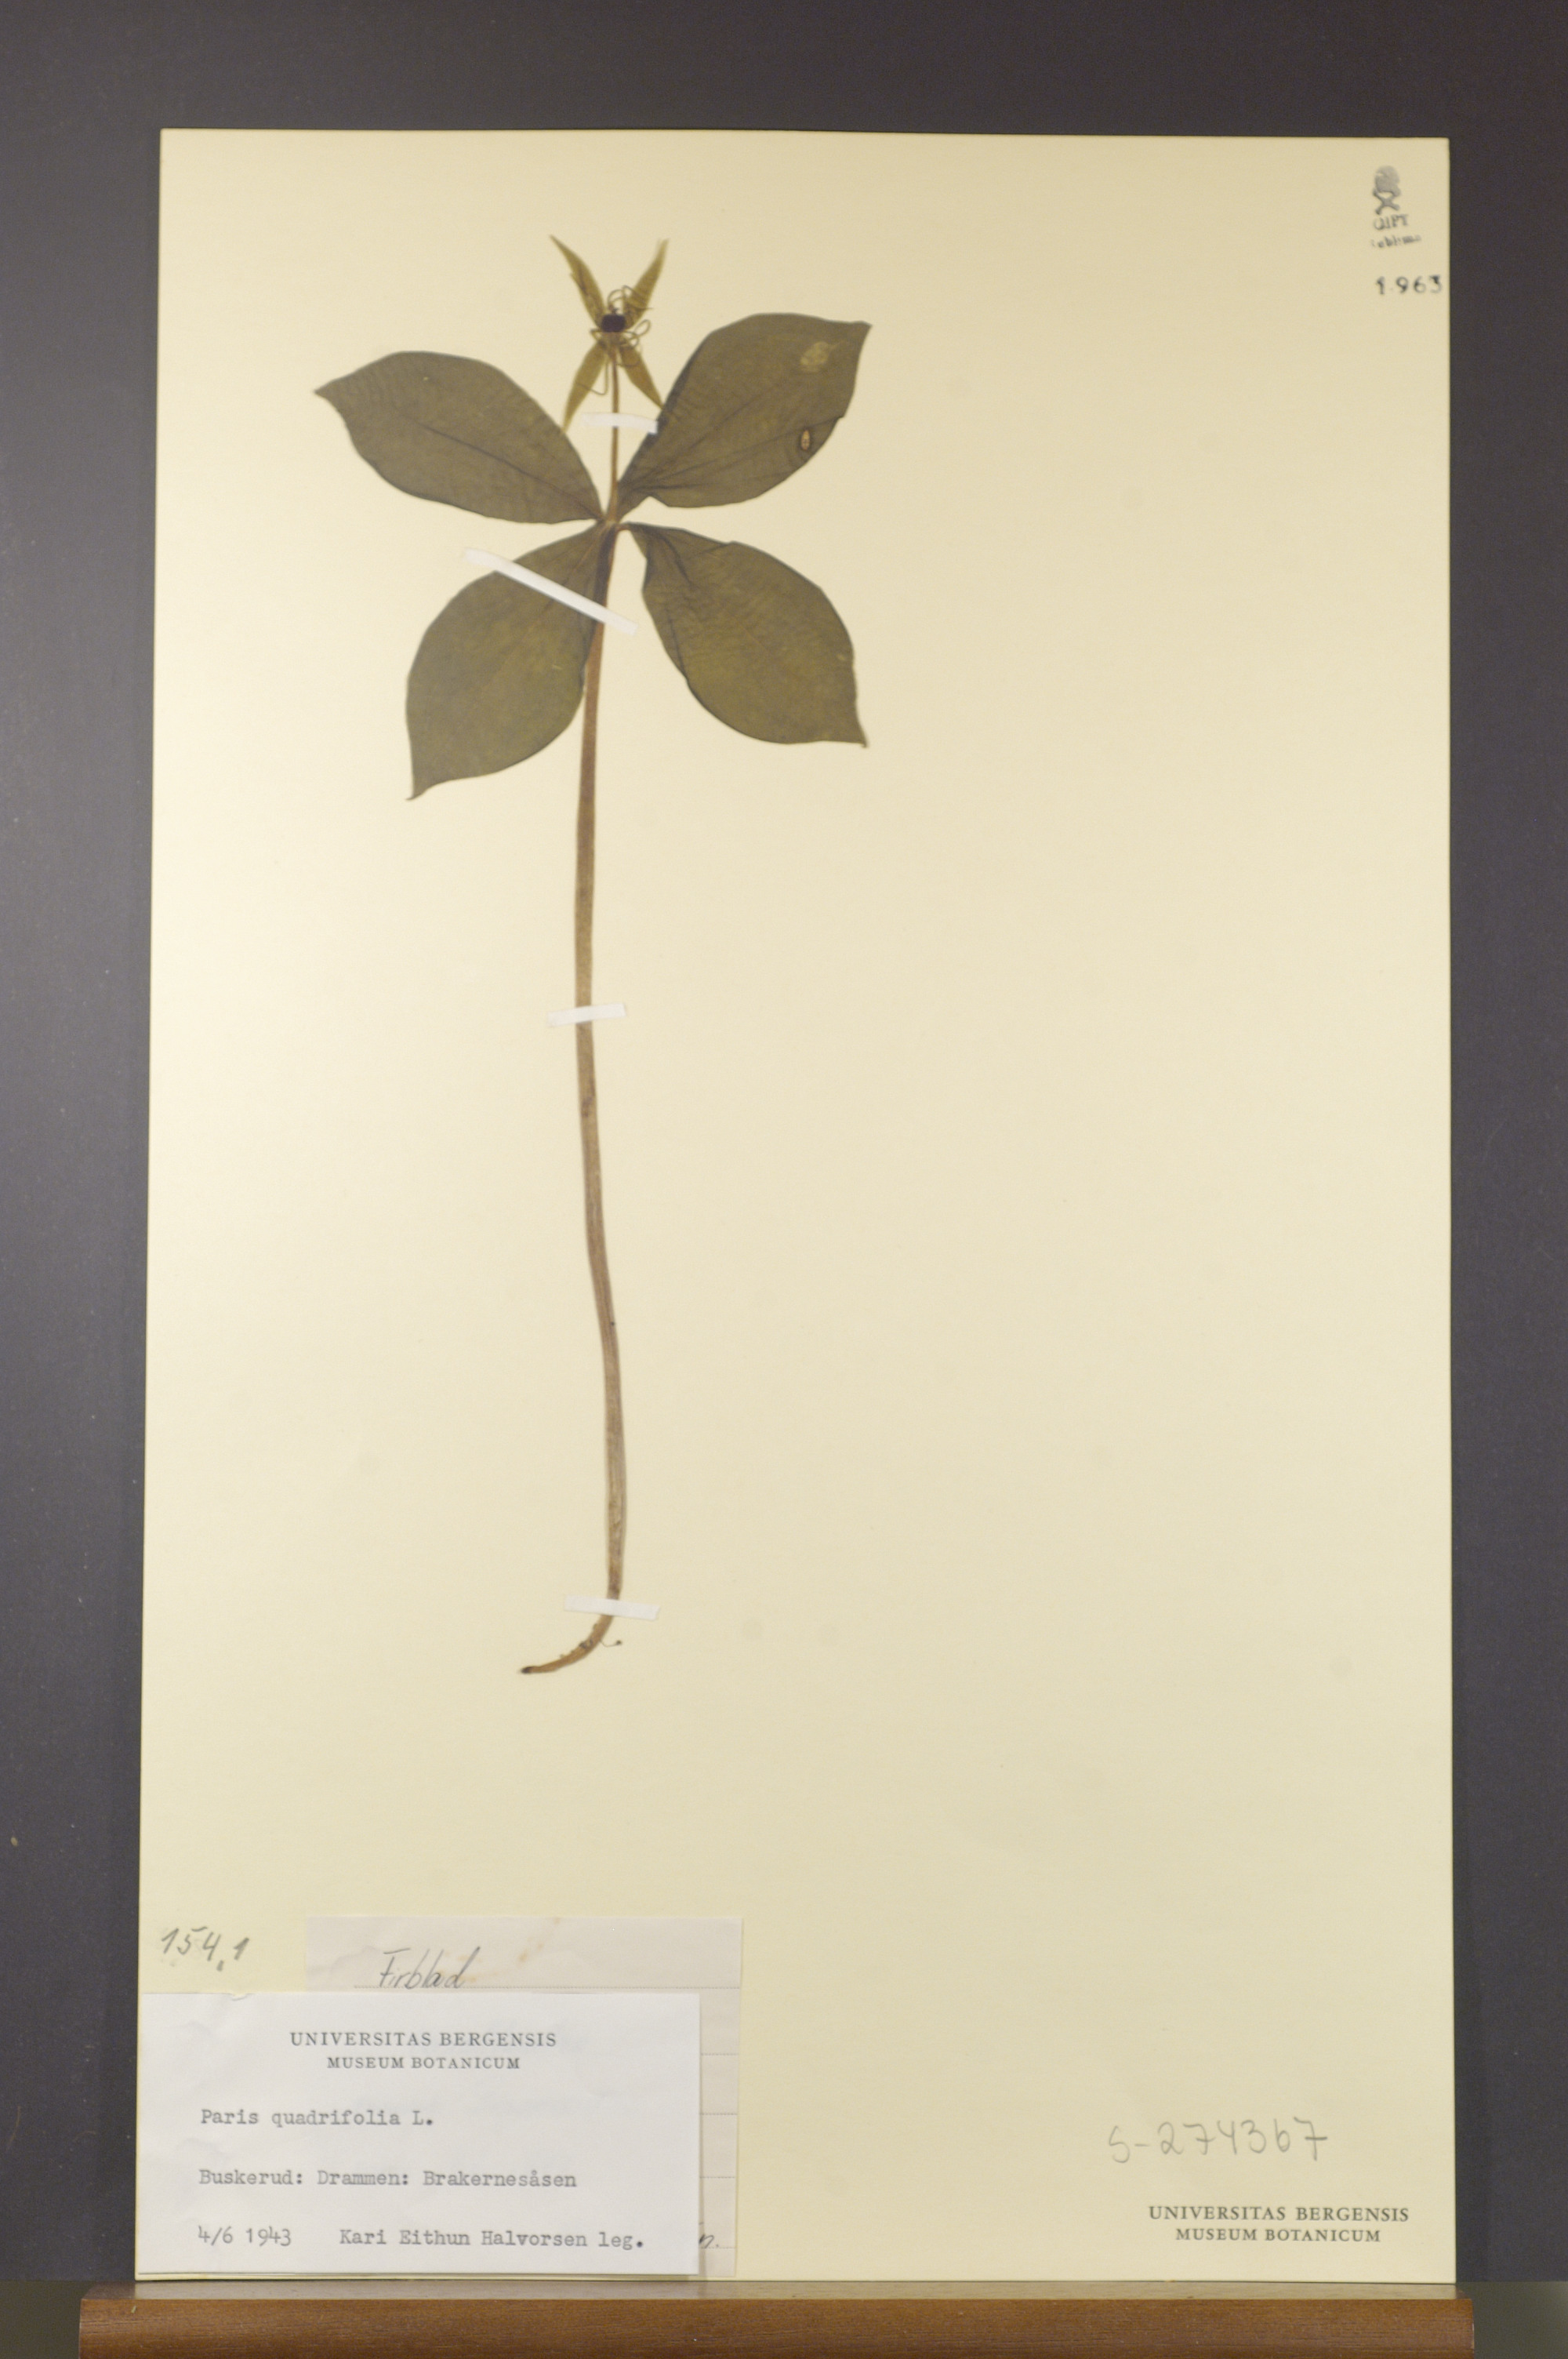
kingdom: Plantae
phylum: Tracheophyta
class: Liliopsida
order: Liliales
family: Melanthiaceae
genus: Paris
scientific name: Paris quadrifolia
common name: Herb-paris
